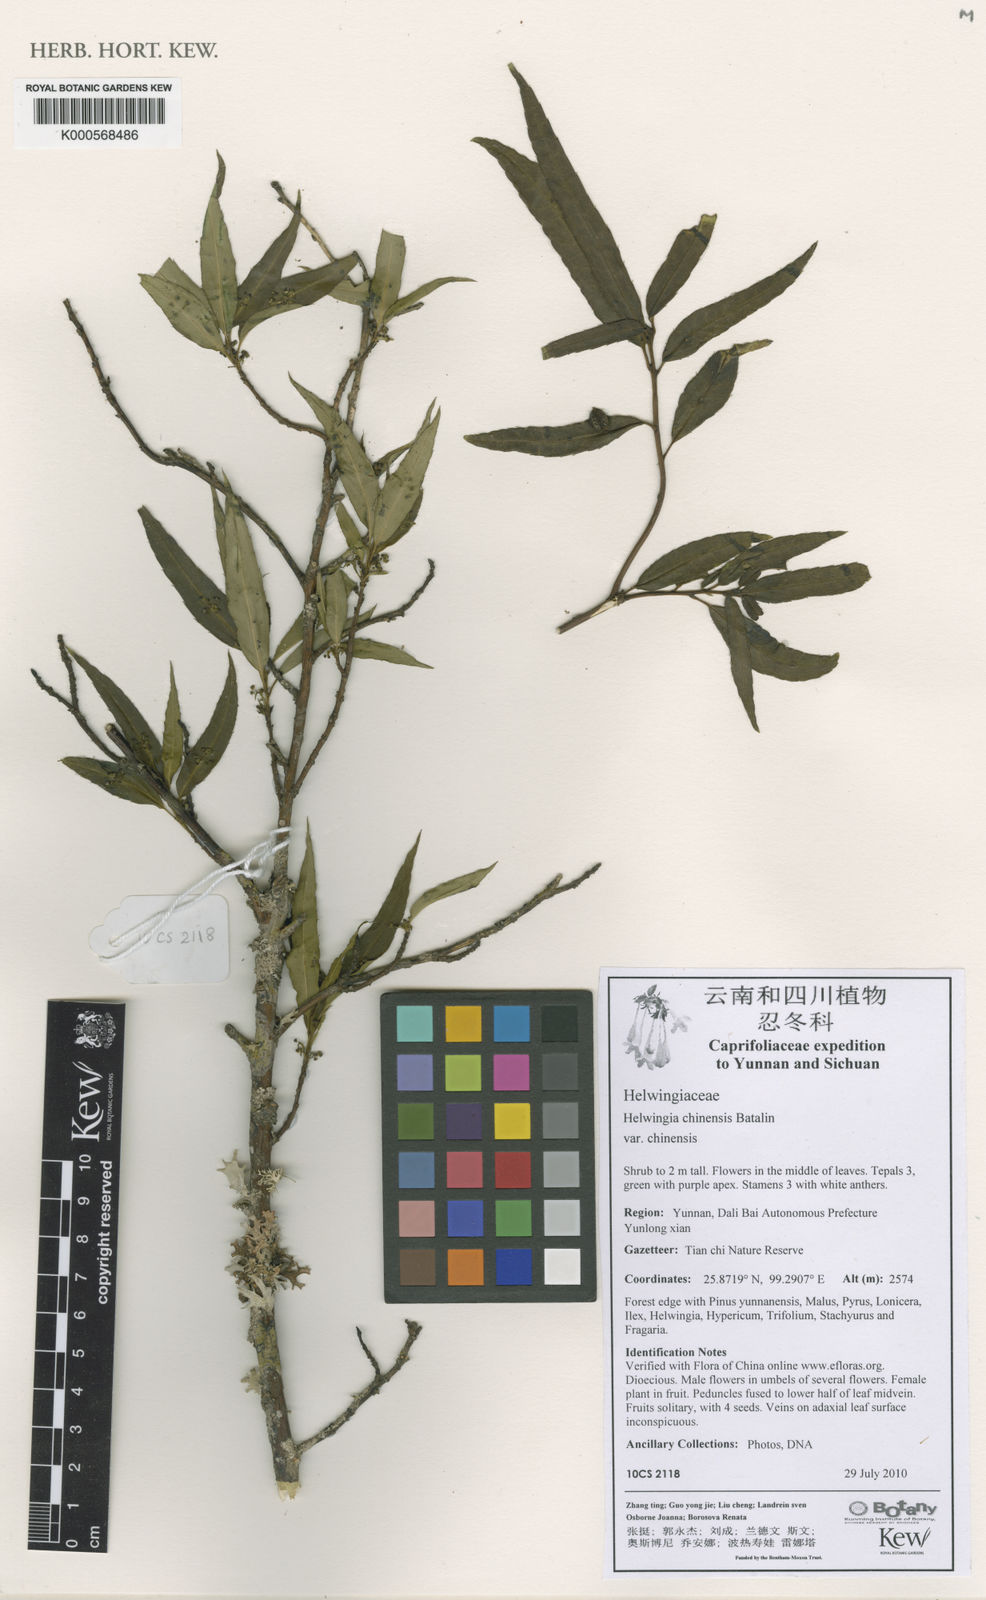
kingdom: Plantae
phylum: Tracheophyta
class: Magnoliopsida
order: Solanales
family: Solanaceae
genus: Solanum
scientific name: Solanum aculeatissimum
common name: Dutch eggplant
